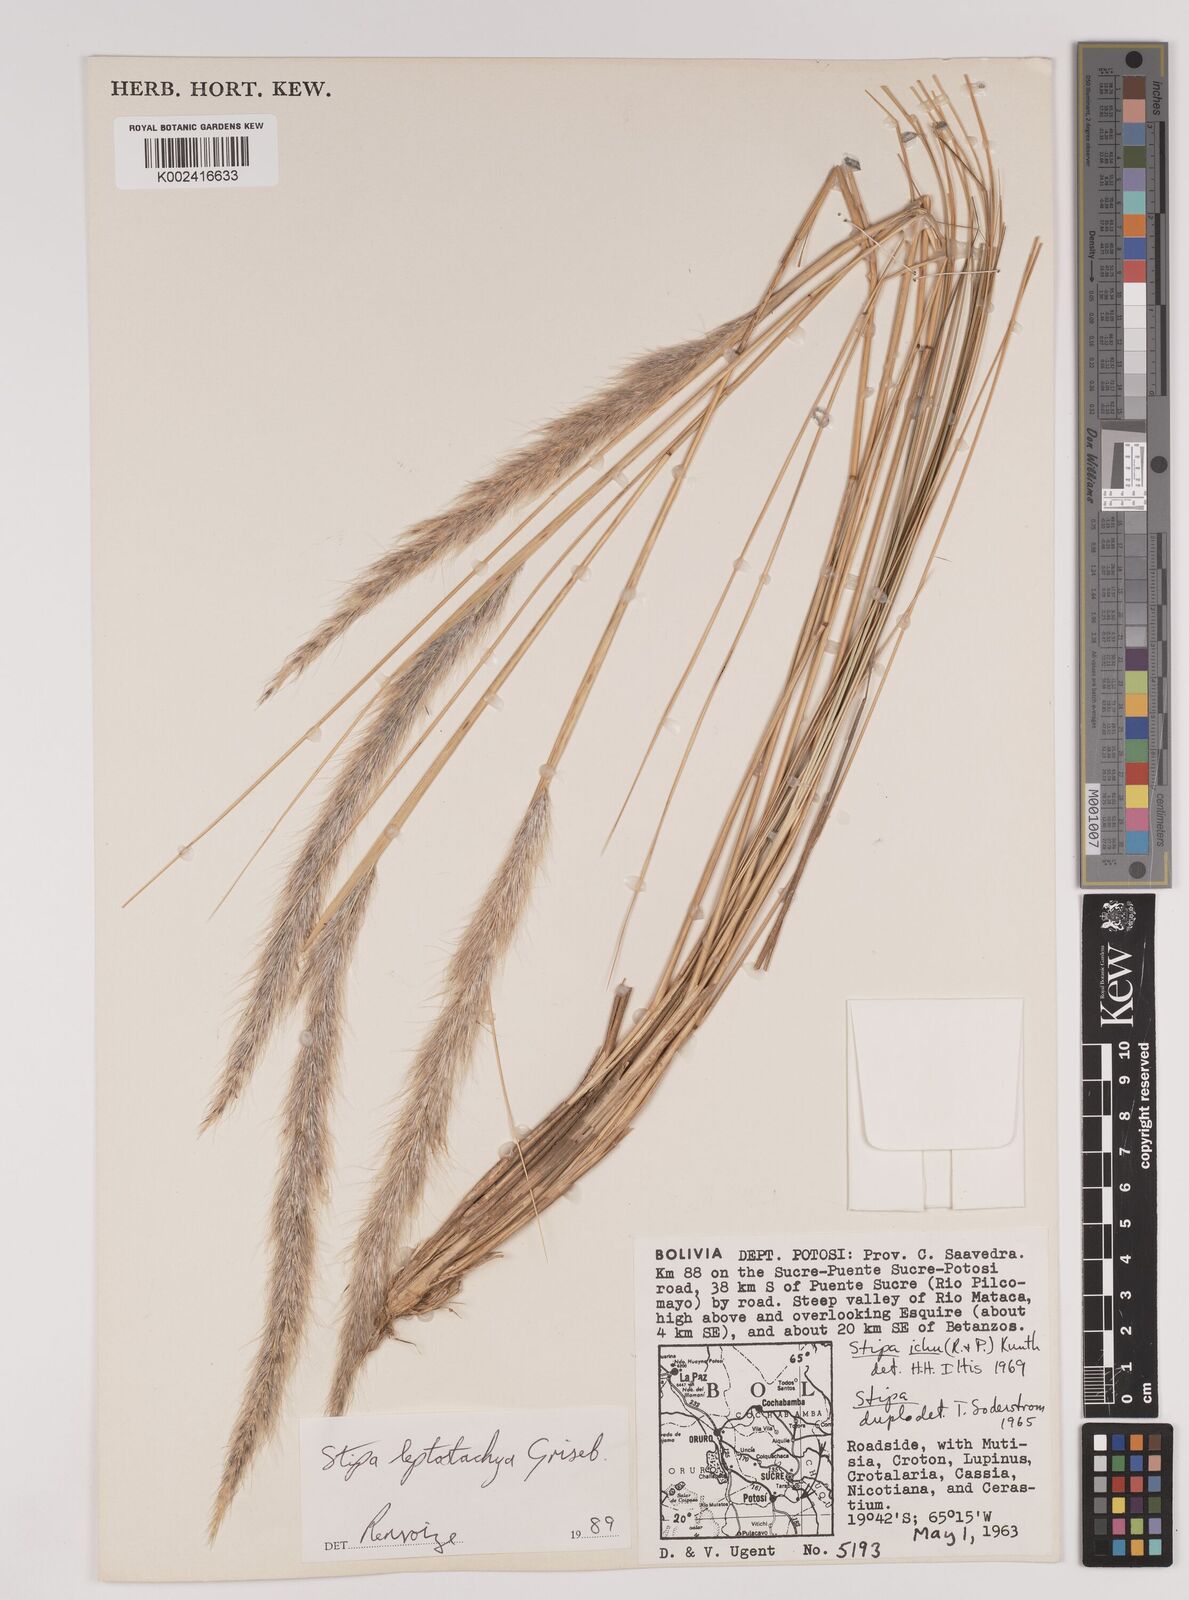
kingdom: Plantae
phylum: Tracheophyta
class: Liliopsida
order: Poales
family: Poaceae
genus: Jarava
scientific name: Jarava leptostachya
